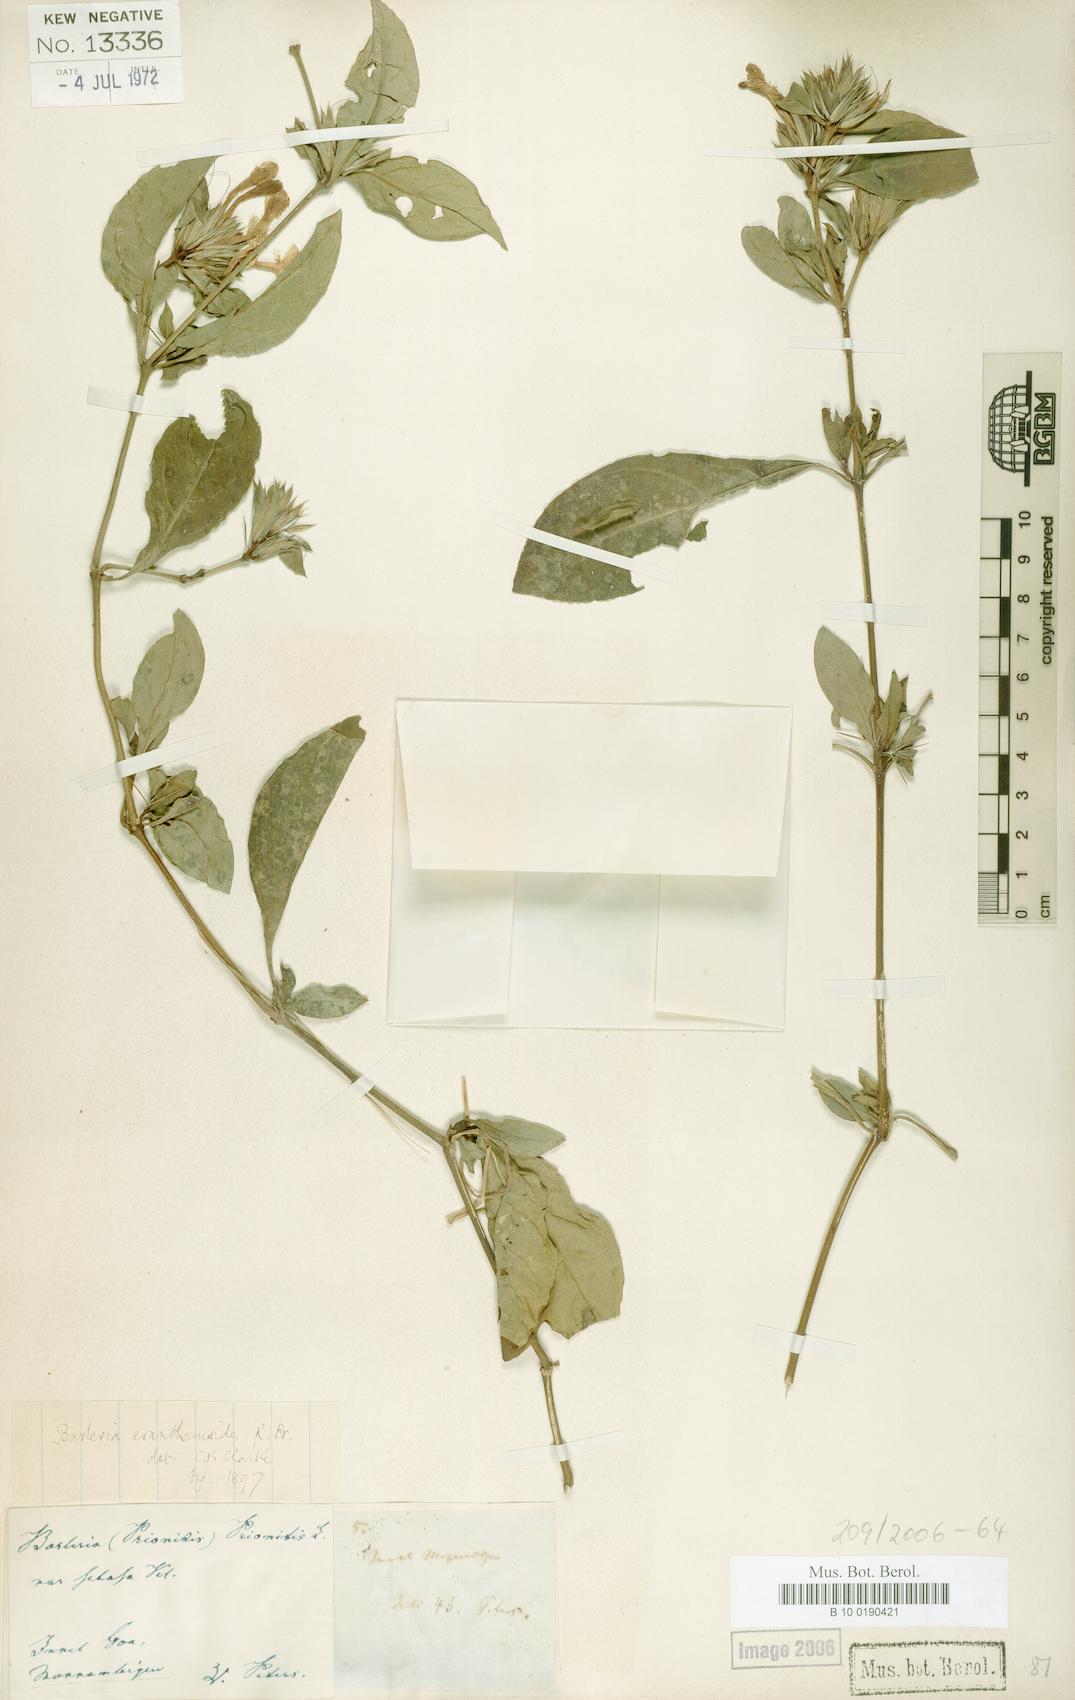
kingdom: Plantae
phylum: Tracheophyta
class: Magnoliopsida
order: Lamiales
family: Acanthaceae
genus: Barleria
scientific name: Barleria setosa
